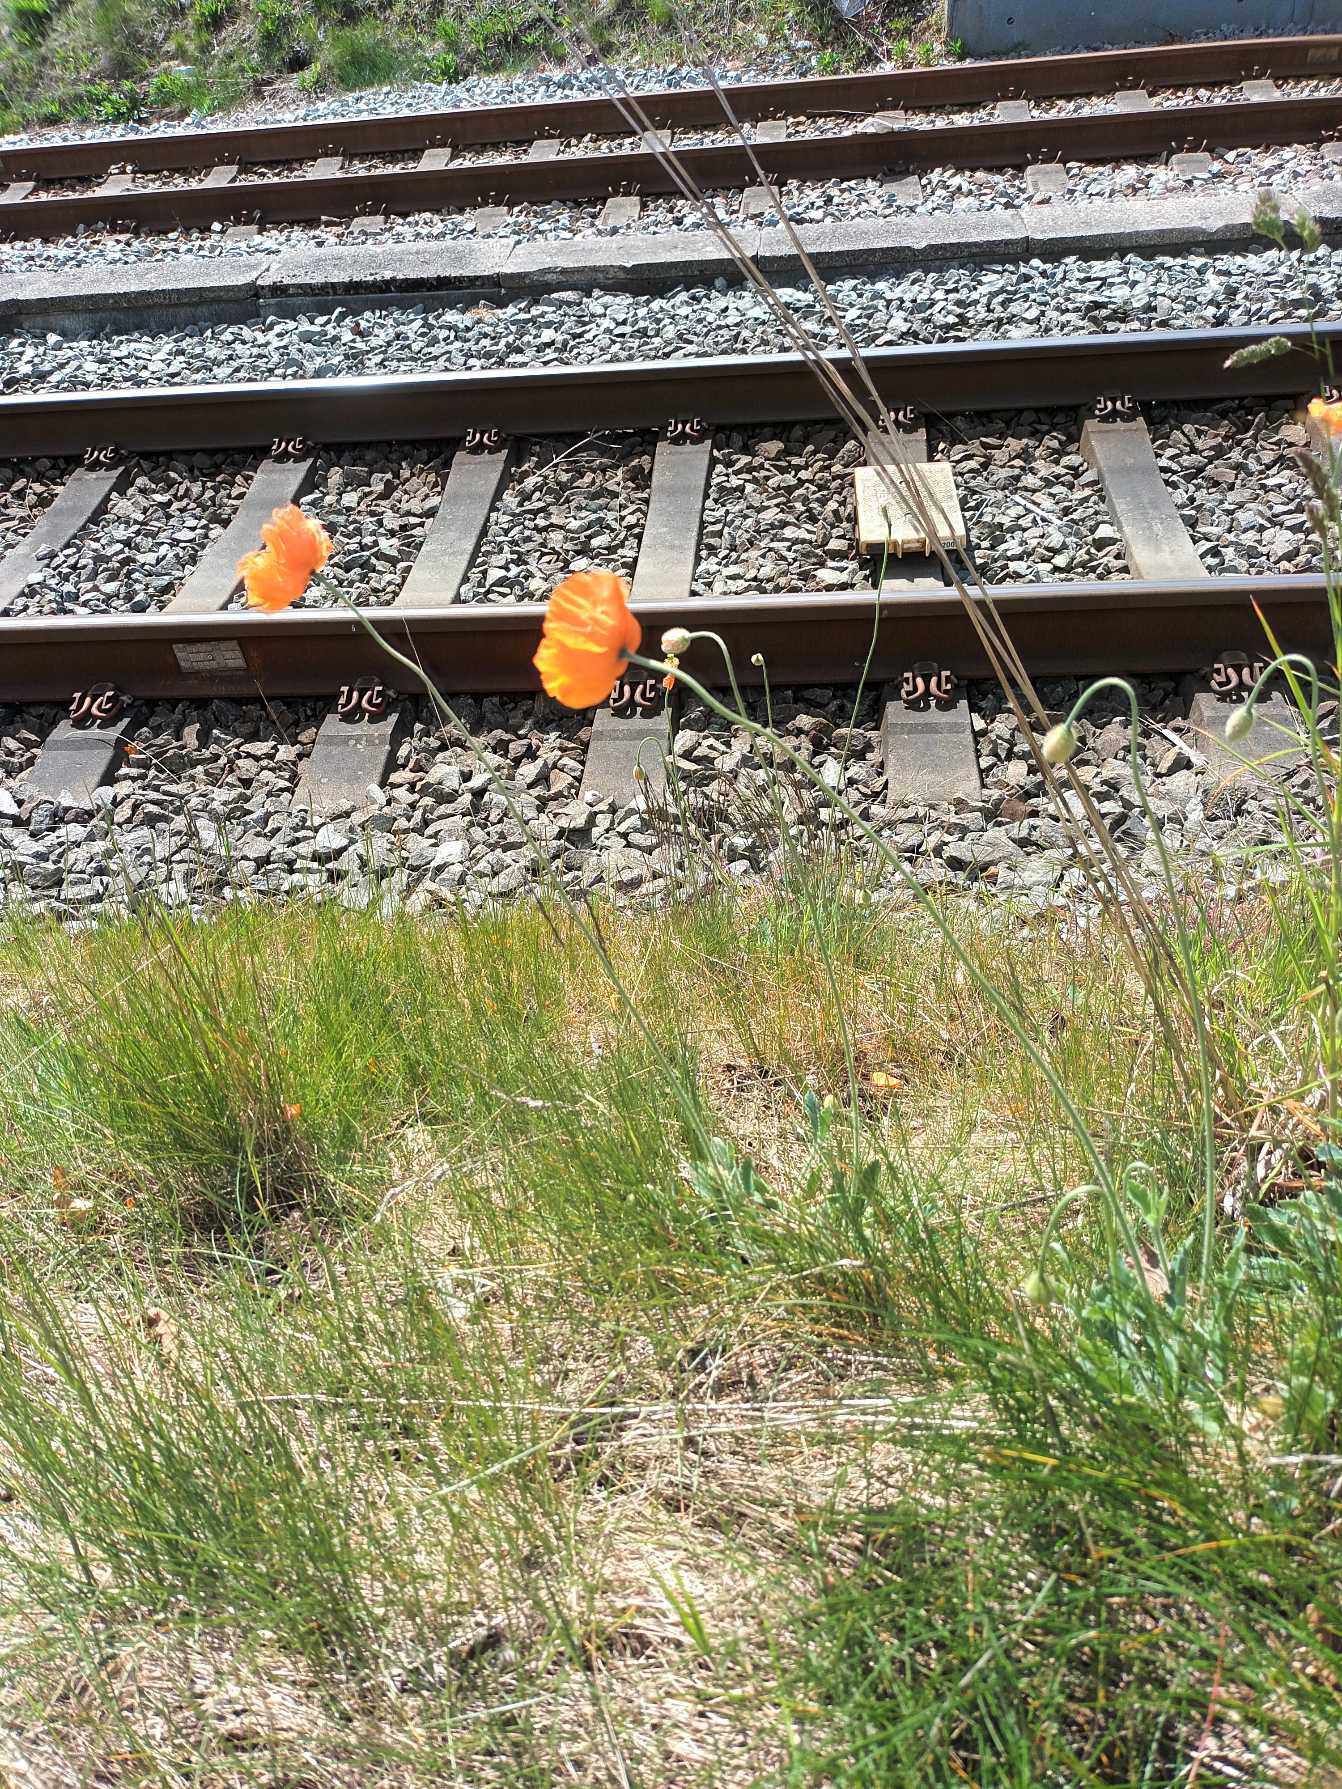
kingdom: Plantae
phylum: Tracheophyta
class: Magnoliopsida
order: Ranunculales
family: Papaveraceae
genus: Papaver
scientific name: Papaver atlanticum
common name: Atlas-valmue
